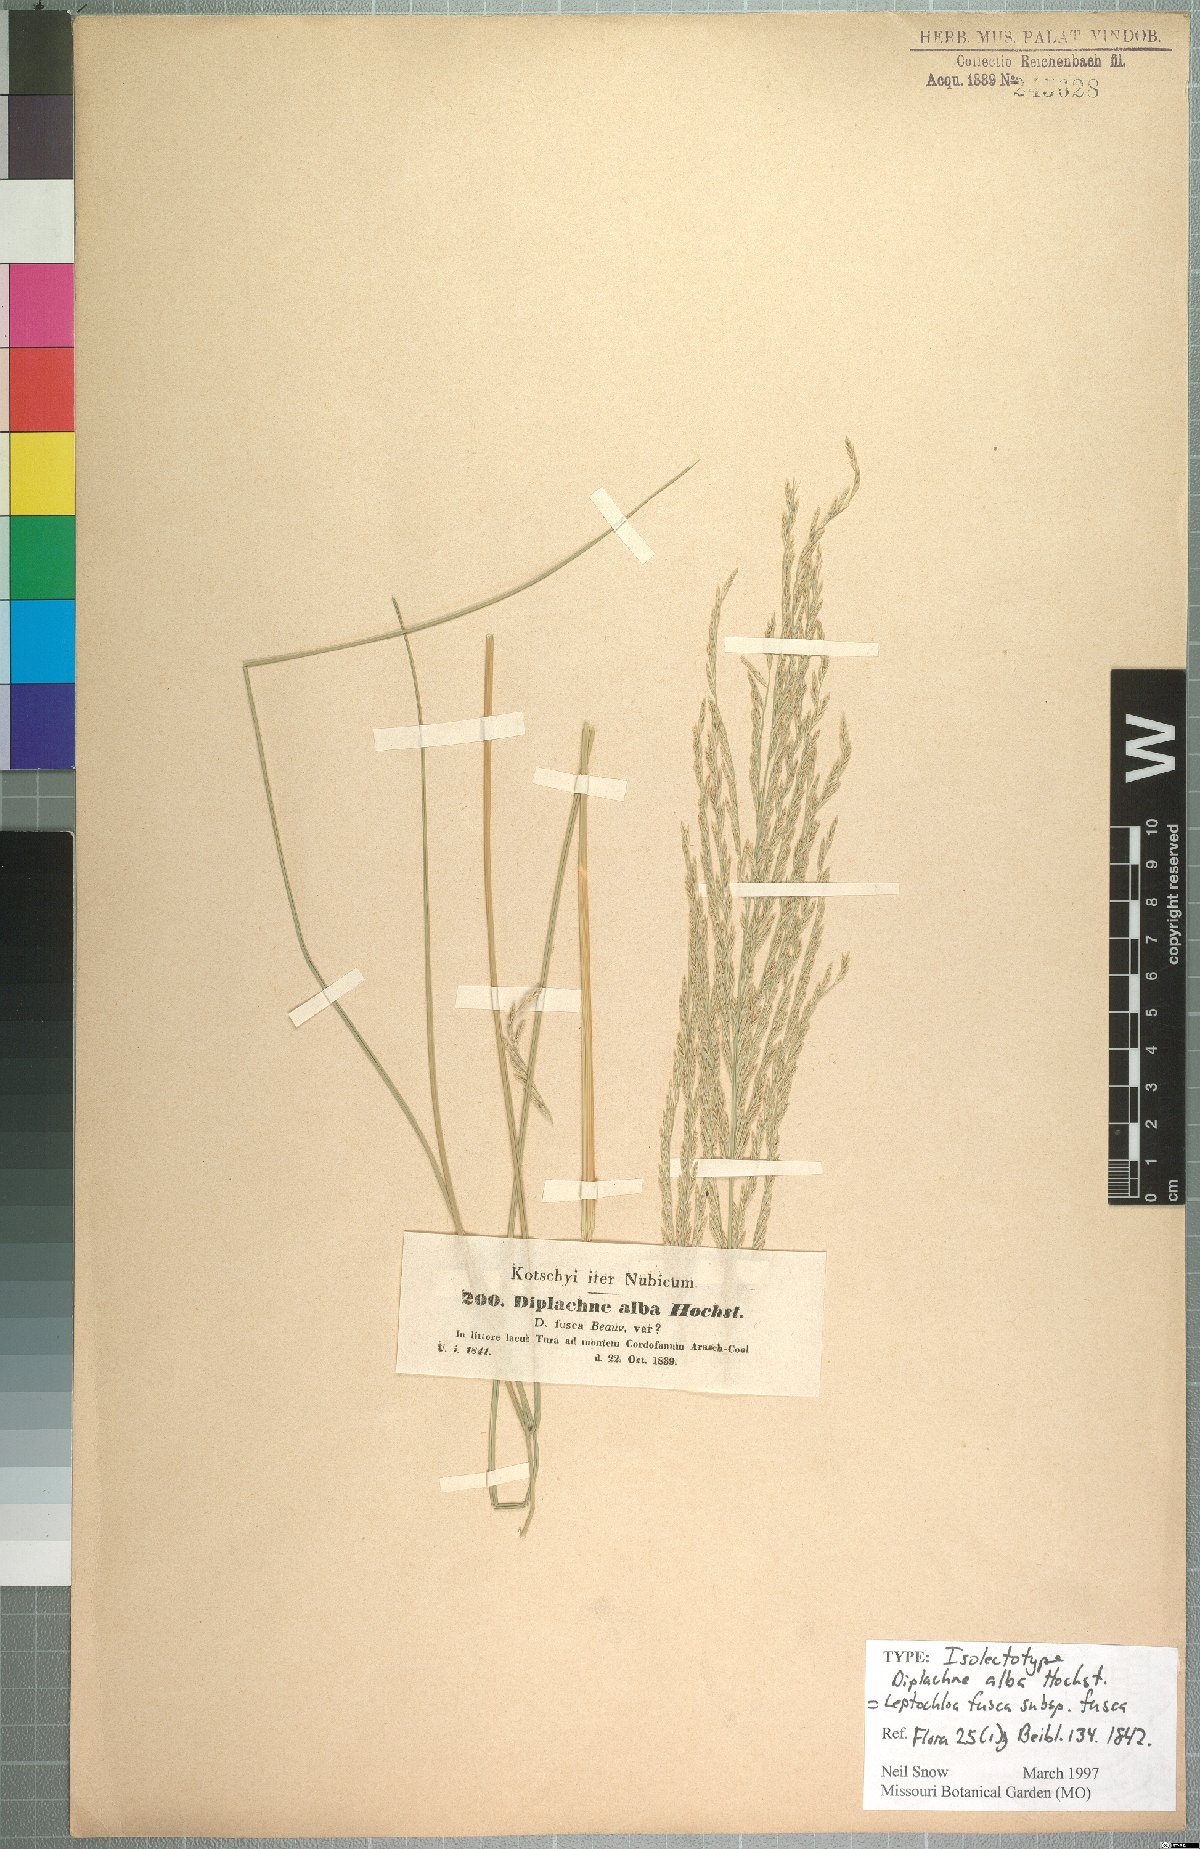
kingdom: Plantae
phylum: Tracheophyta
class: Liliopsida
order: Poales
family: Poaceae
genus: Diplachne
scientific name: Diplachne fusca
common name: Brown beetle grass
